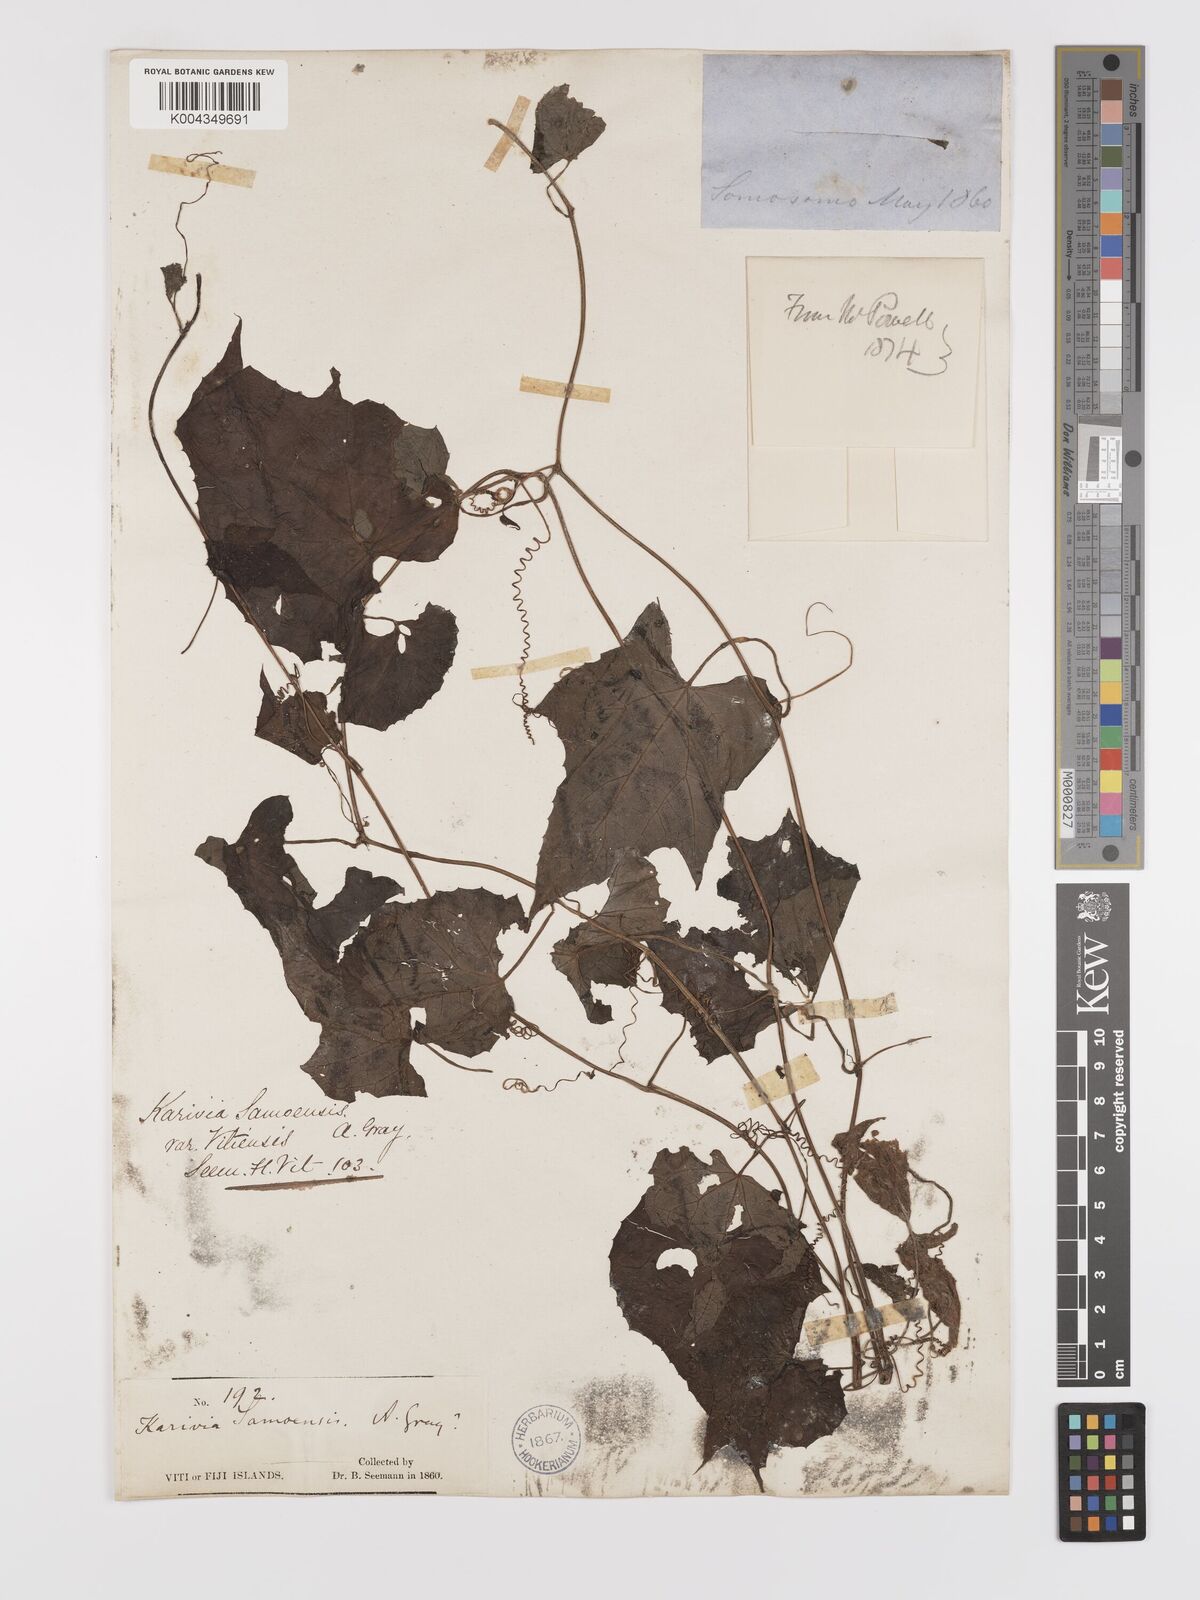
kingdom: Plantae
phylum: Tracheophyta
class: Magnoliopsida
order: Cucurbitales
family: Cucurbitaceae
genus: Zehneria
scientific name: Zehneria mucronata
